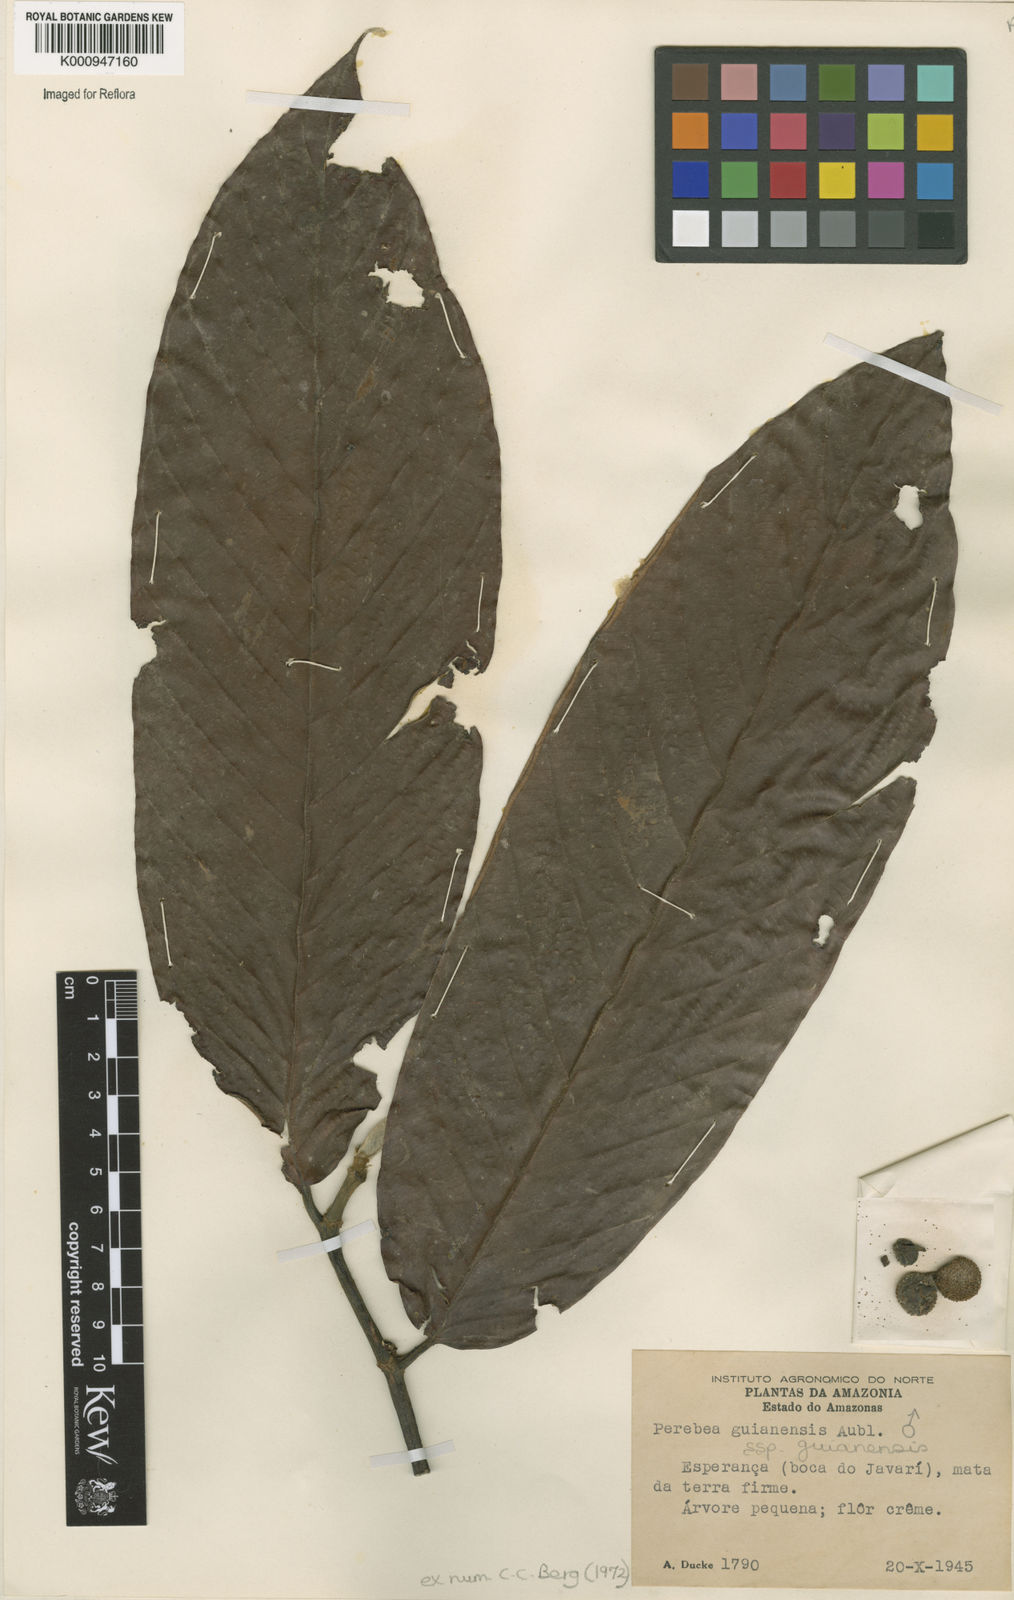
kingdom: Plantae
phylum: Tracheophyta
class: Magnoliopsida
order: Rosales
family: Moraceae
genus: Perebea
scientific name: Perebea guianensis
